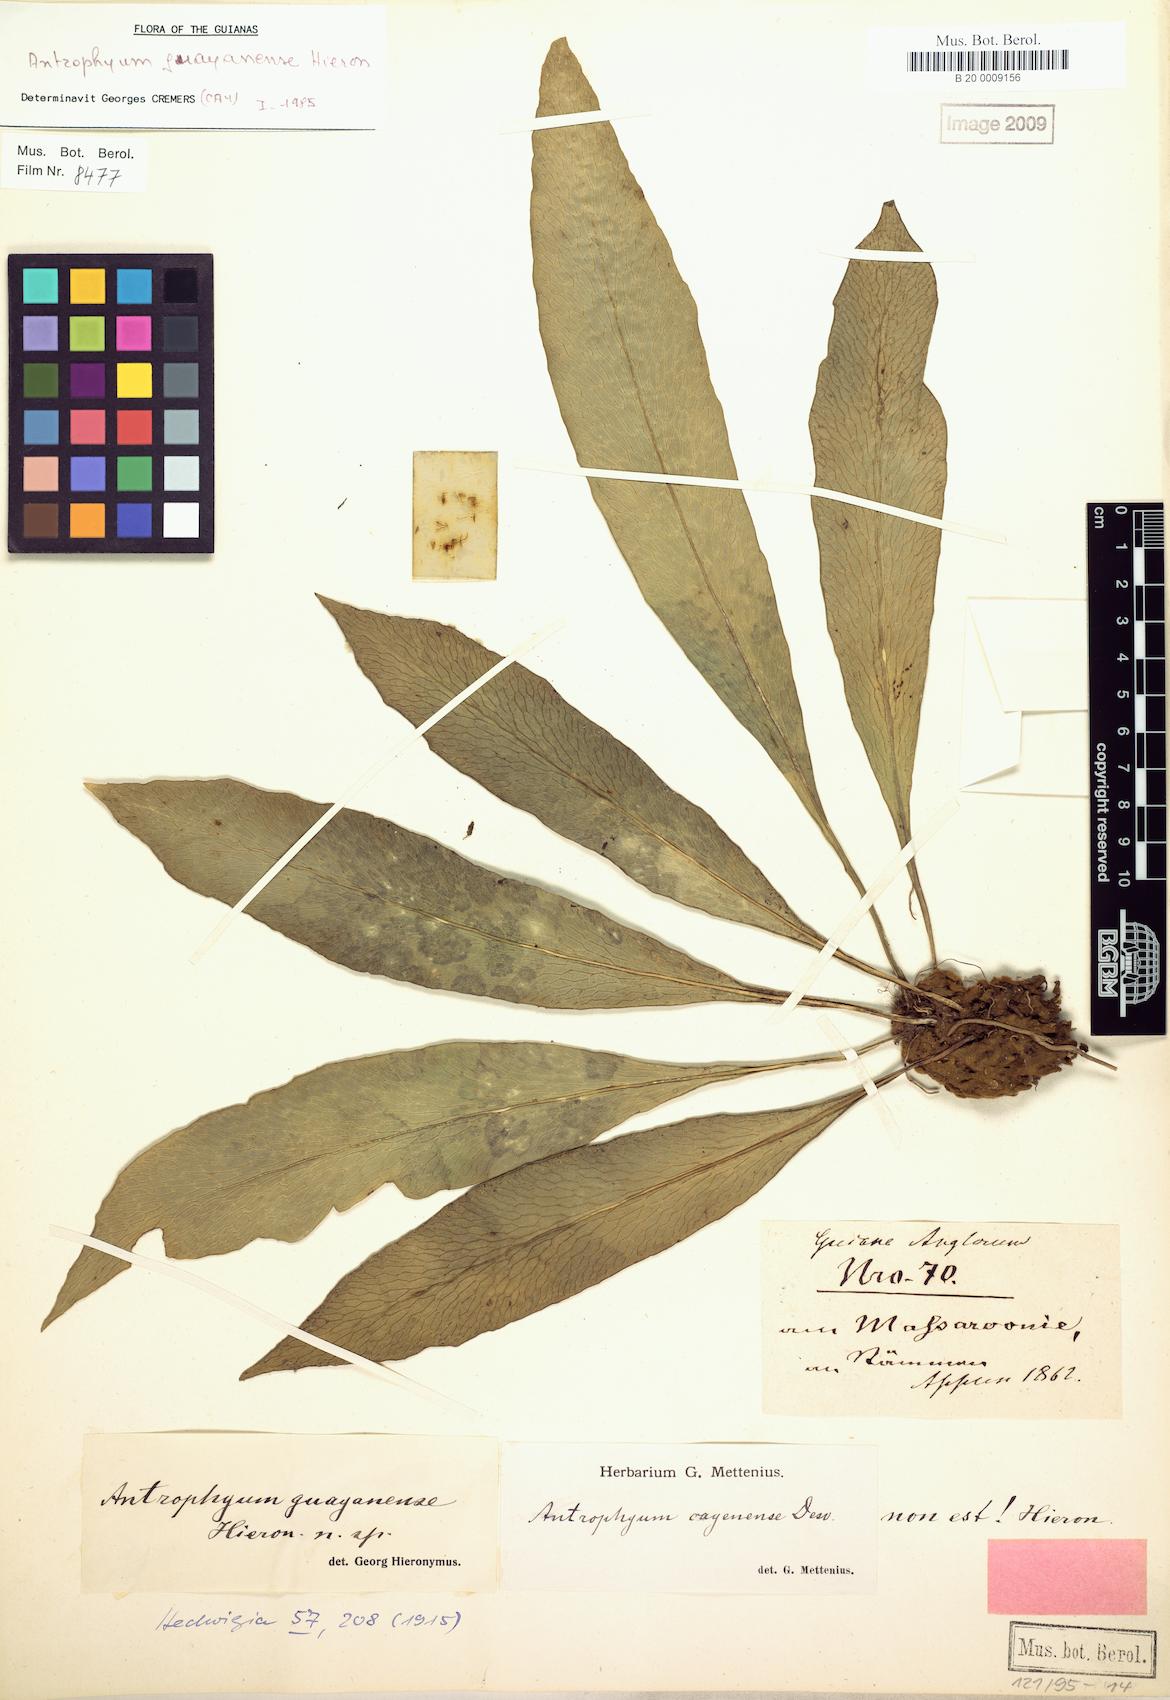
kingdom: Plantae
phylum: Tracheophyta
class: Polypodiopsida
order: Polypodiales
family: Pteridaceae
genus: Polytaenium
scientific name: Polytaenium guayanense
